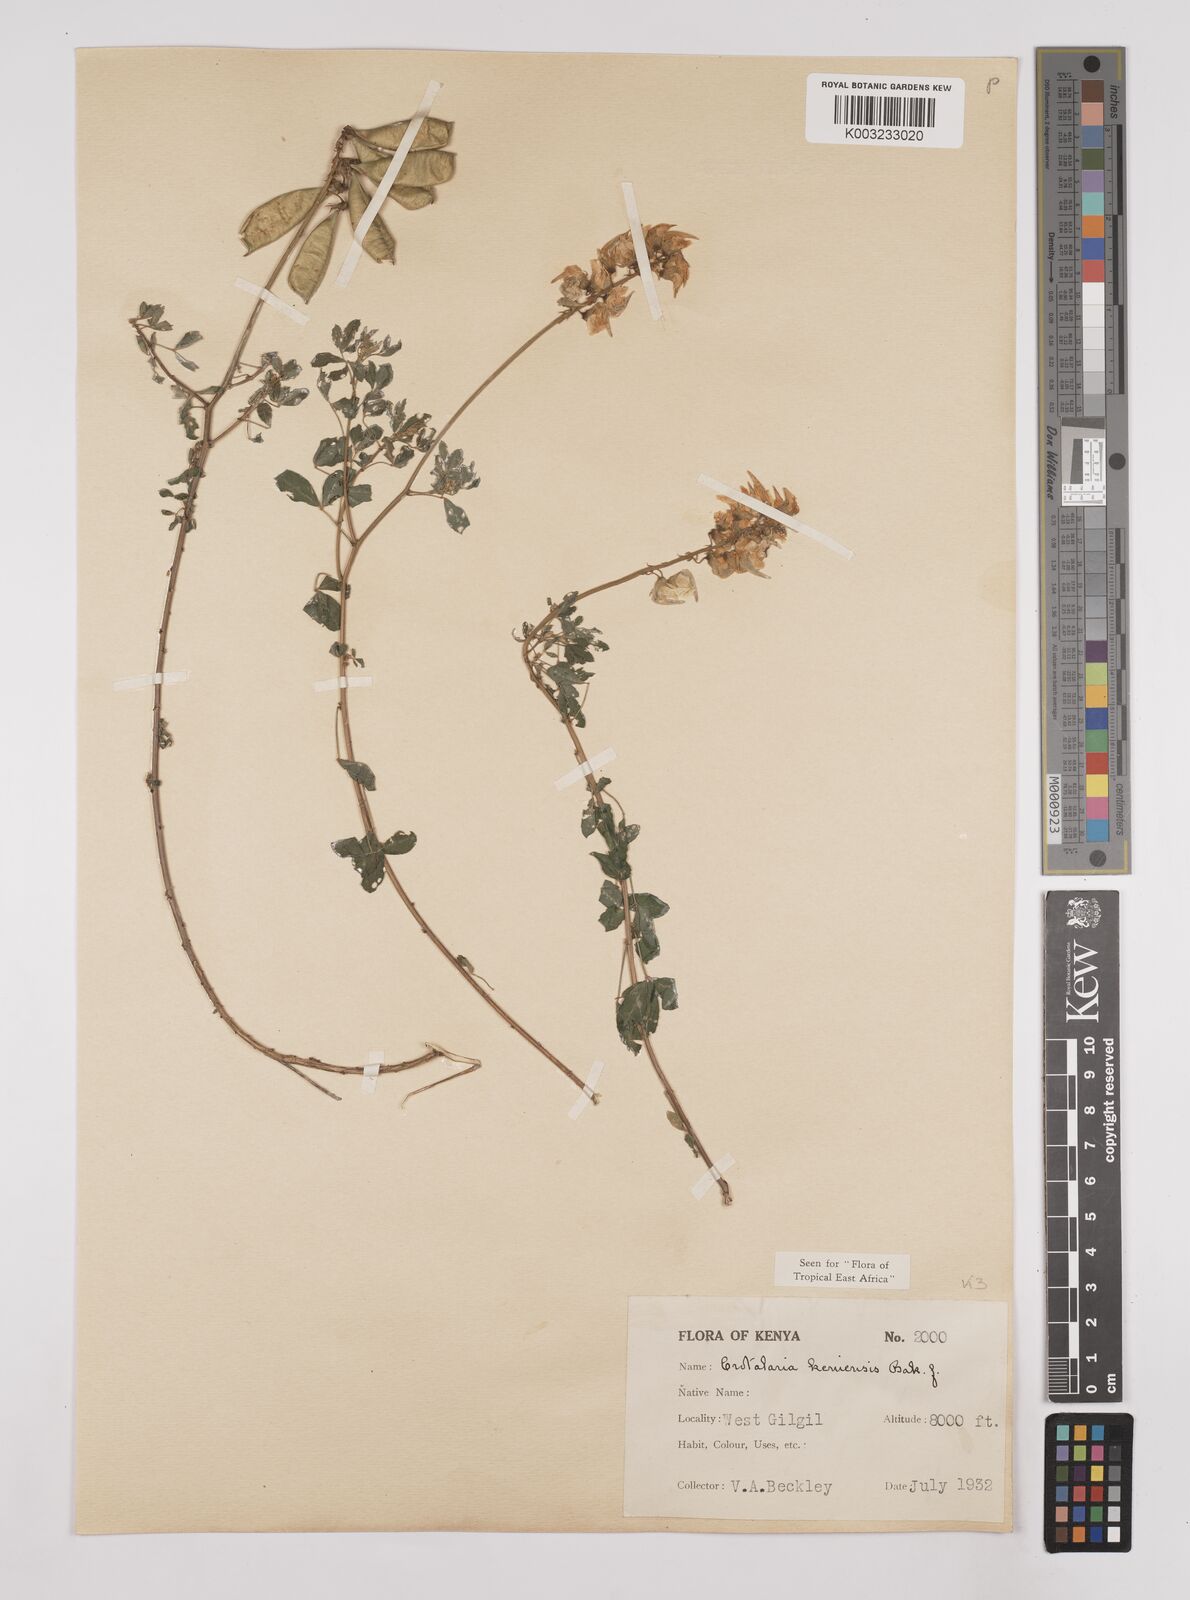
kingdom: Plantae
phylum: Tracheophyta
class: Magnoliopsida
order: Fabales
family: Fabaceae
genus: Crotalaria
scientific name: Crotalaria keniensis
